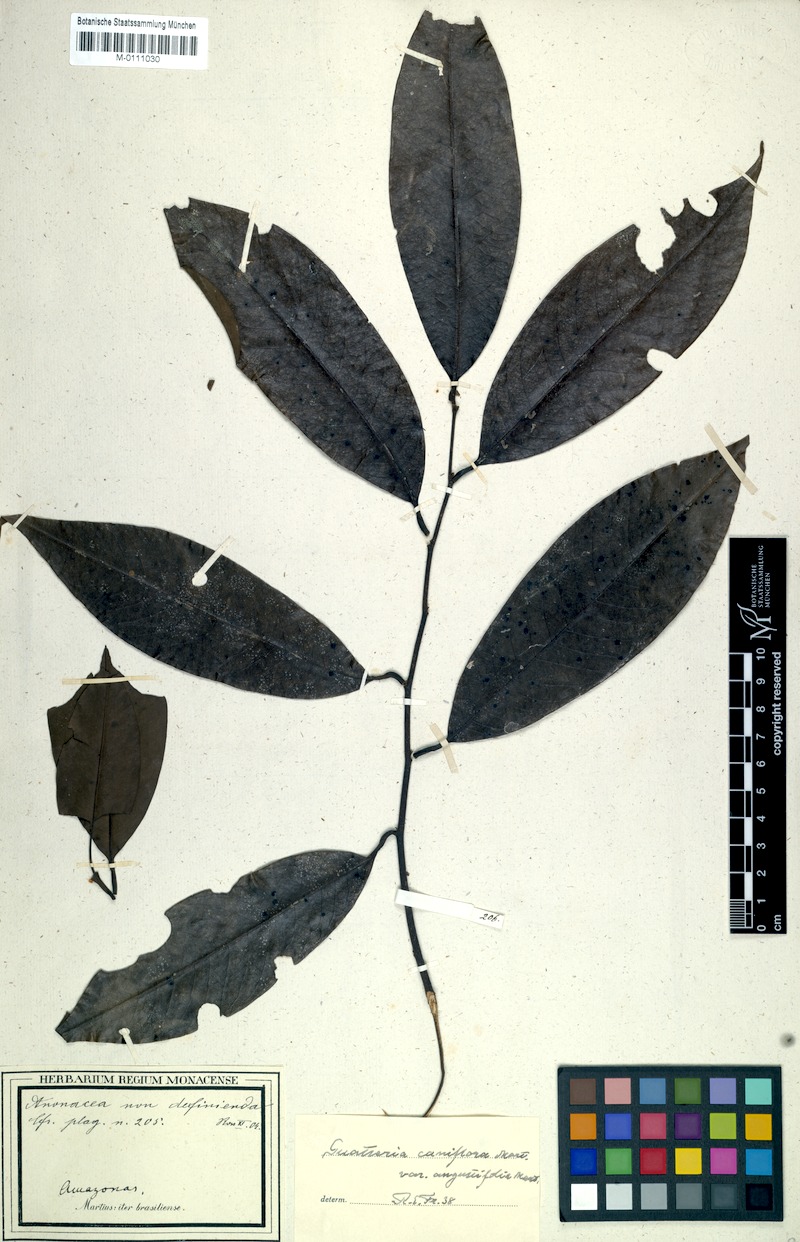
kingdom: Plantae
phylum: Tracheophyta
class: Magnoliopsida
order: Magnoliales
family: Annonaceae
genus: Guatteria
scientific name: Guatteria caniflora
